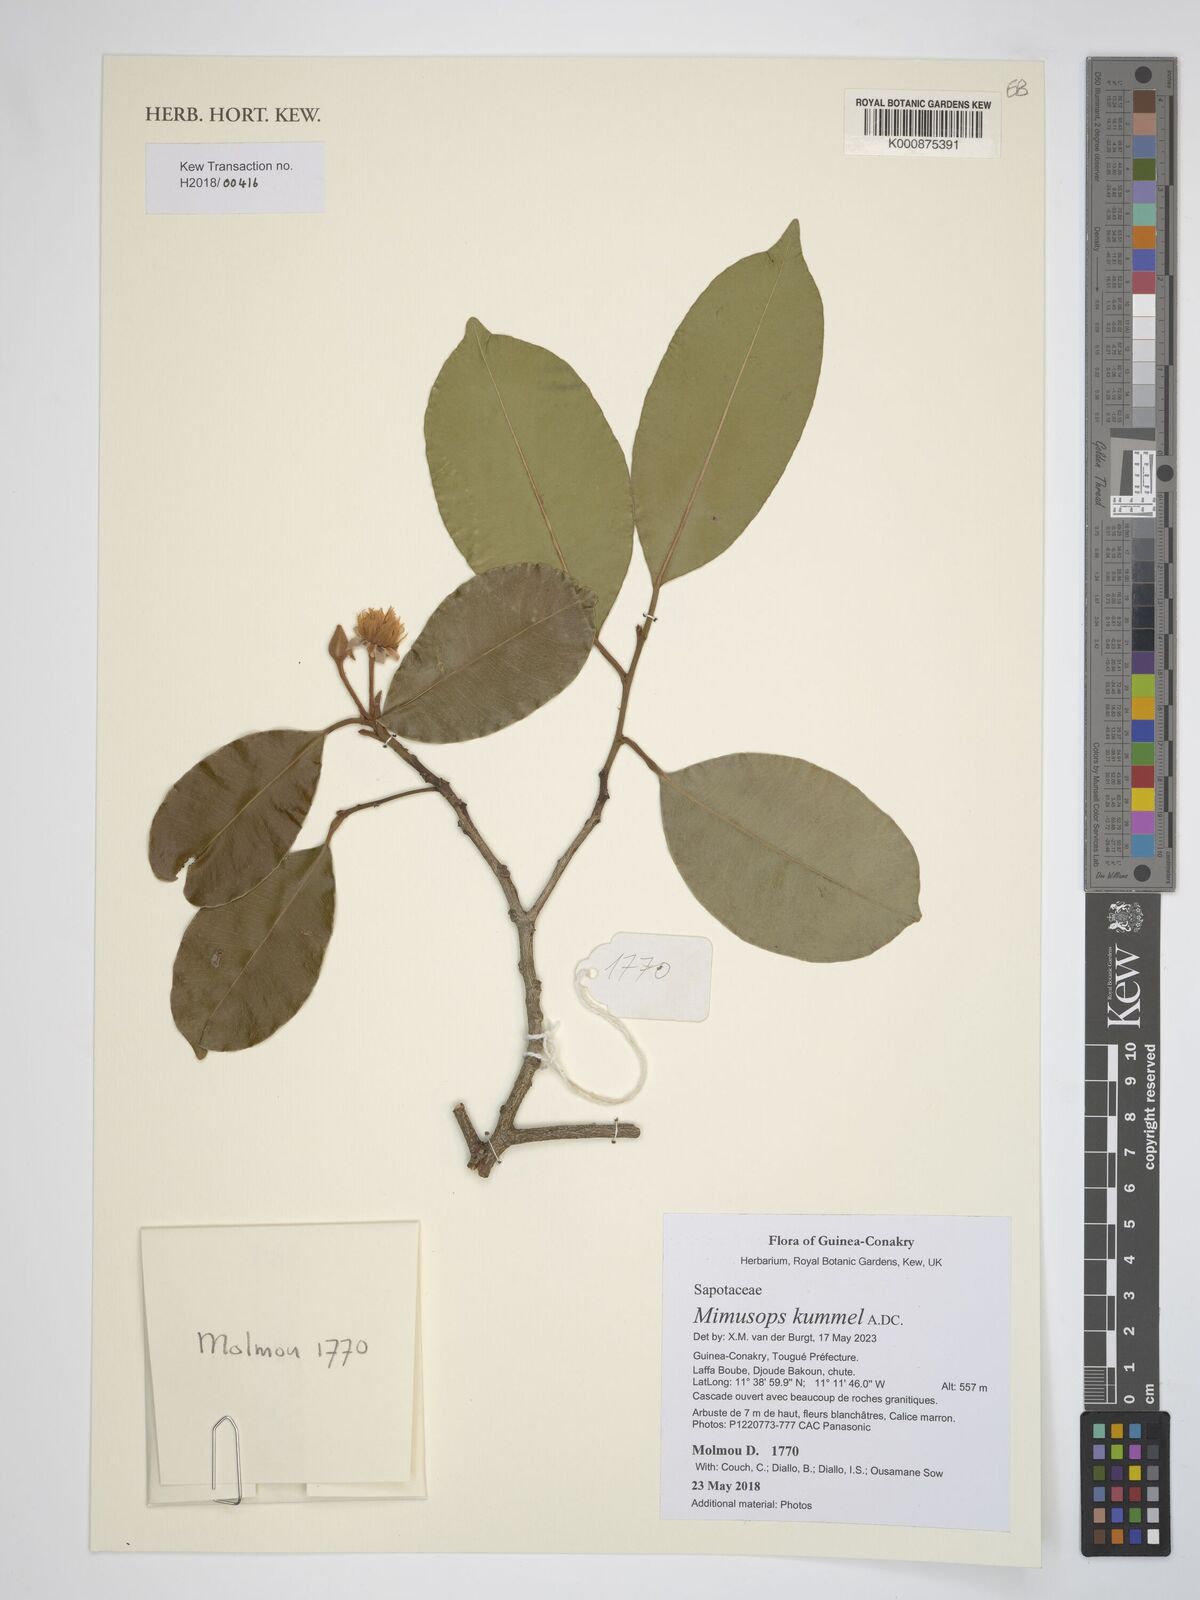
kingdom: Plantae
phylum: Tracheophyta
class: Magnoliopsida
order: Ericales
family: Sapotaceae
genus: Mimusops
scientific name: Mimusops kummel
